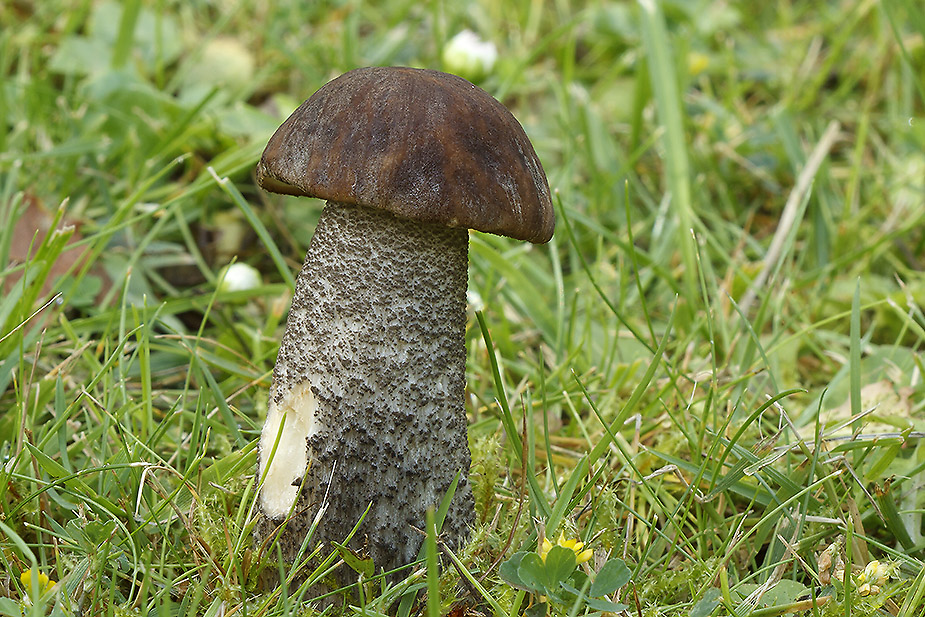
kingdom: Fungi
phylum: Basidiomycota
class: Agaricomycetes
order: Boletales
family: Boletaceae
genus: Leccinum
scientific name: Leccinum scabrum
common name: brun skælrørhat
